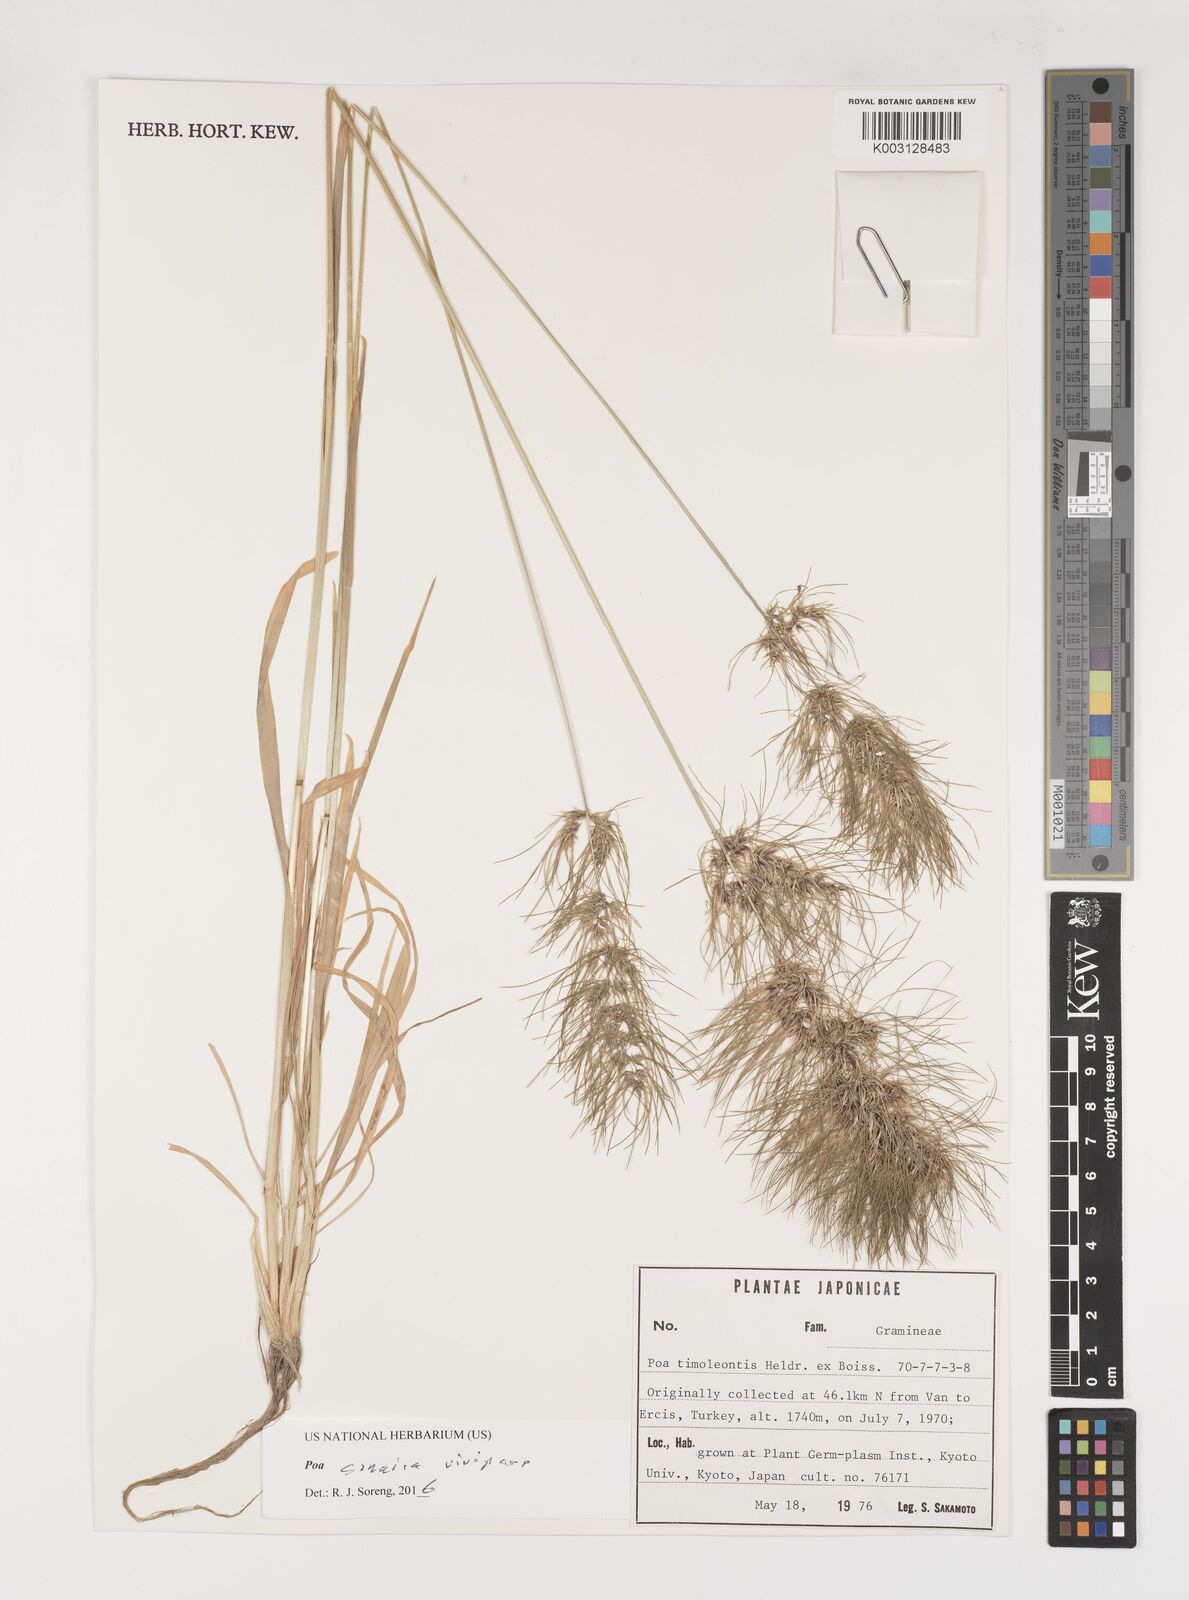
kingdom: Plantae
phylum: Tracheophyta
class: Liliopsida
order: Poales
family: Poaceae
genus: Poa
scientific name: Poa sinaica
